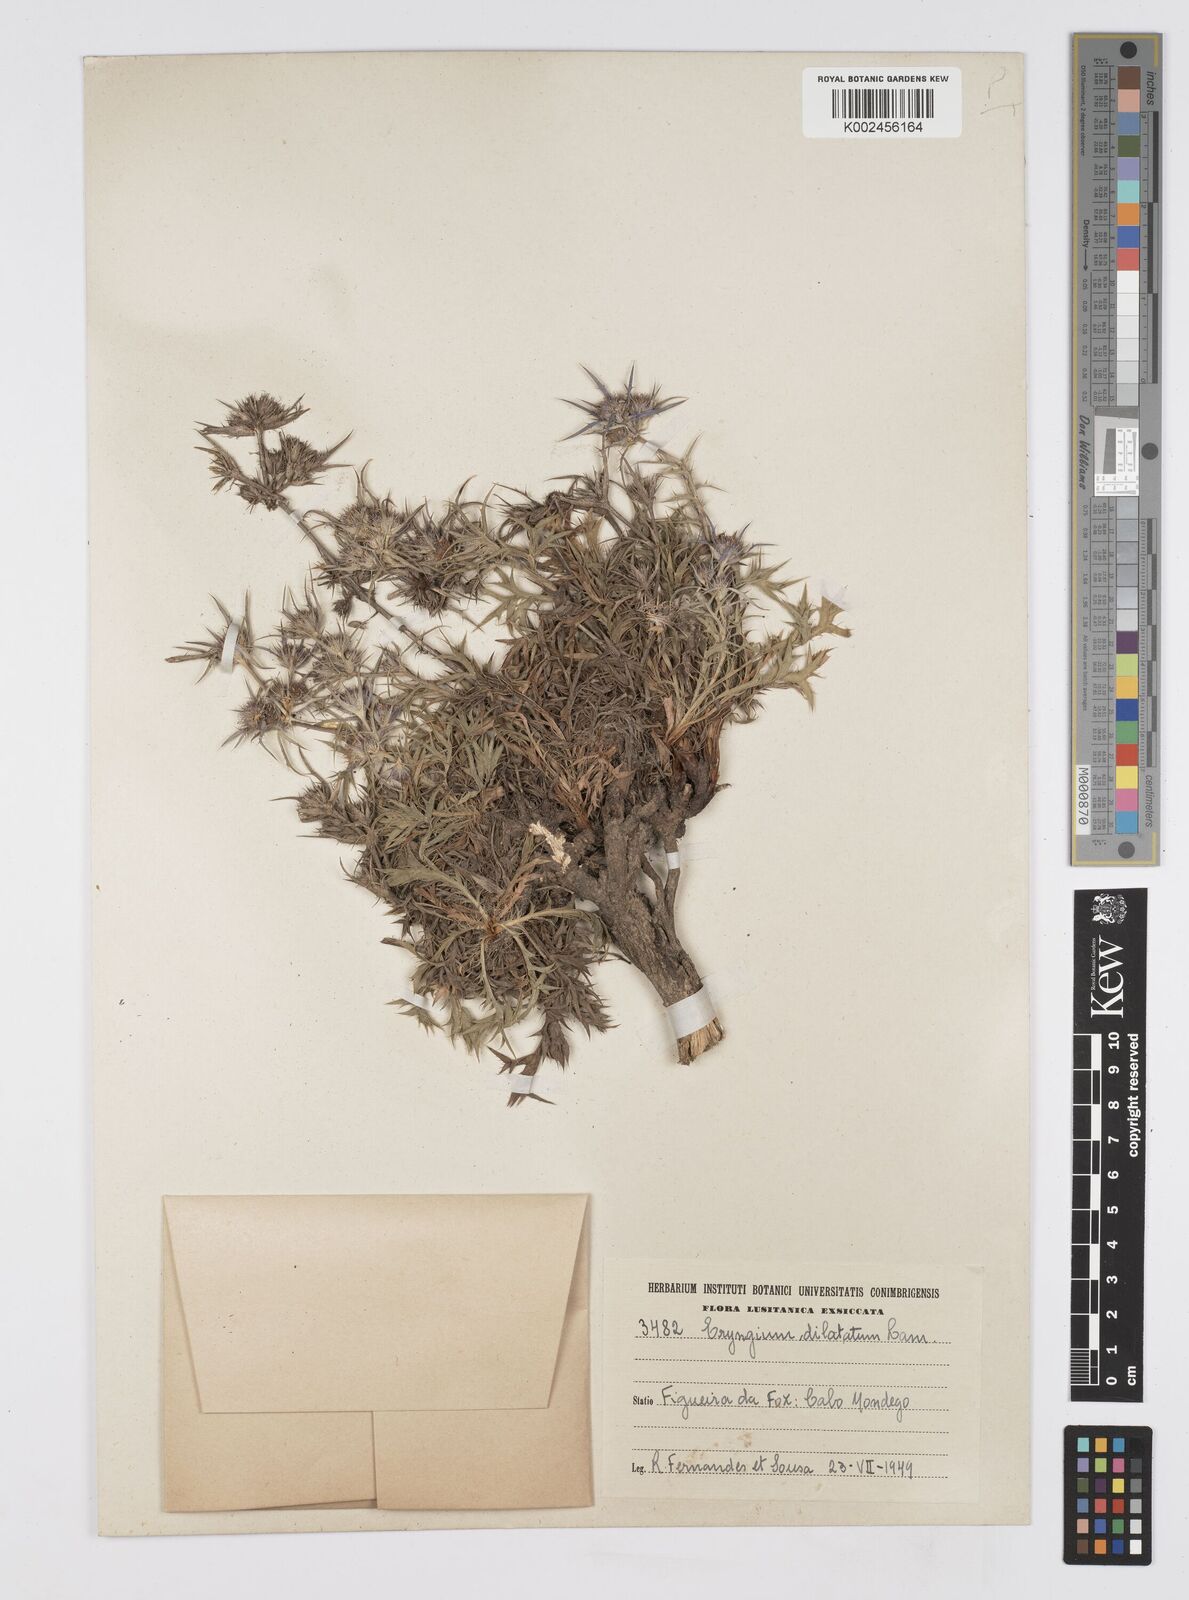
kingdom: Plantae
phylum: Tracheophyta
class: Magnoliopsida
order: Apiales
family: Apiaceae
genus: Eryngium
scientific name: Eryngium dilatatum
